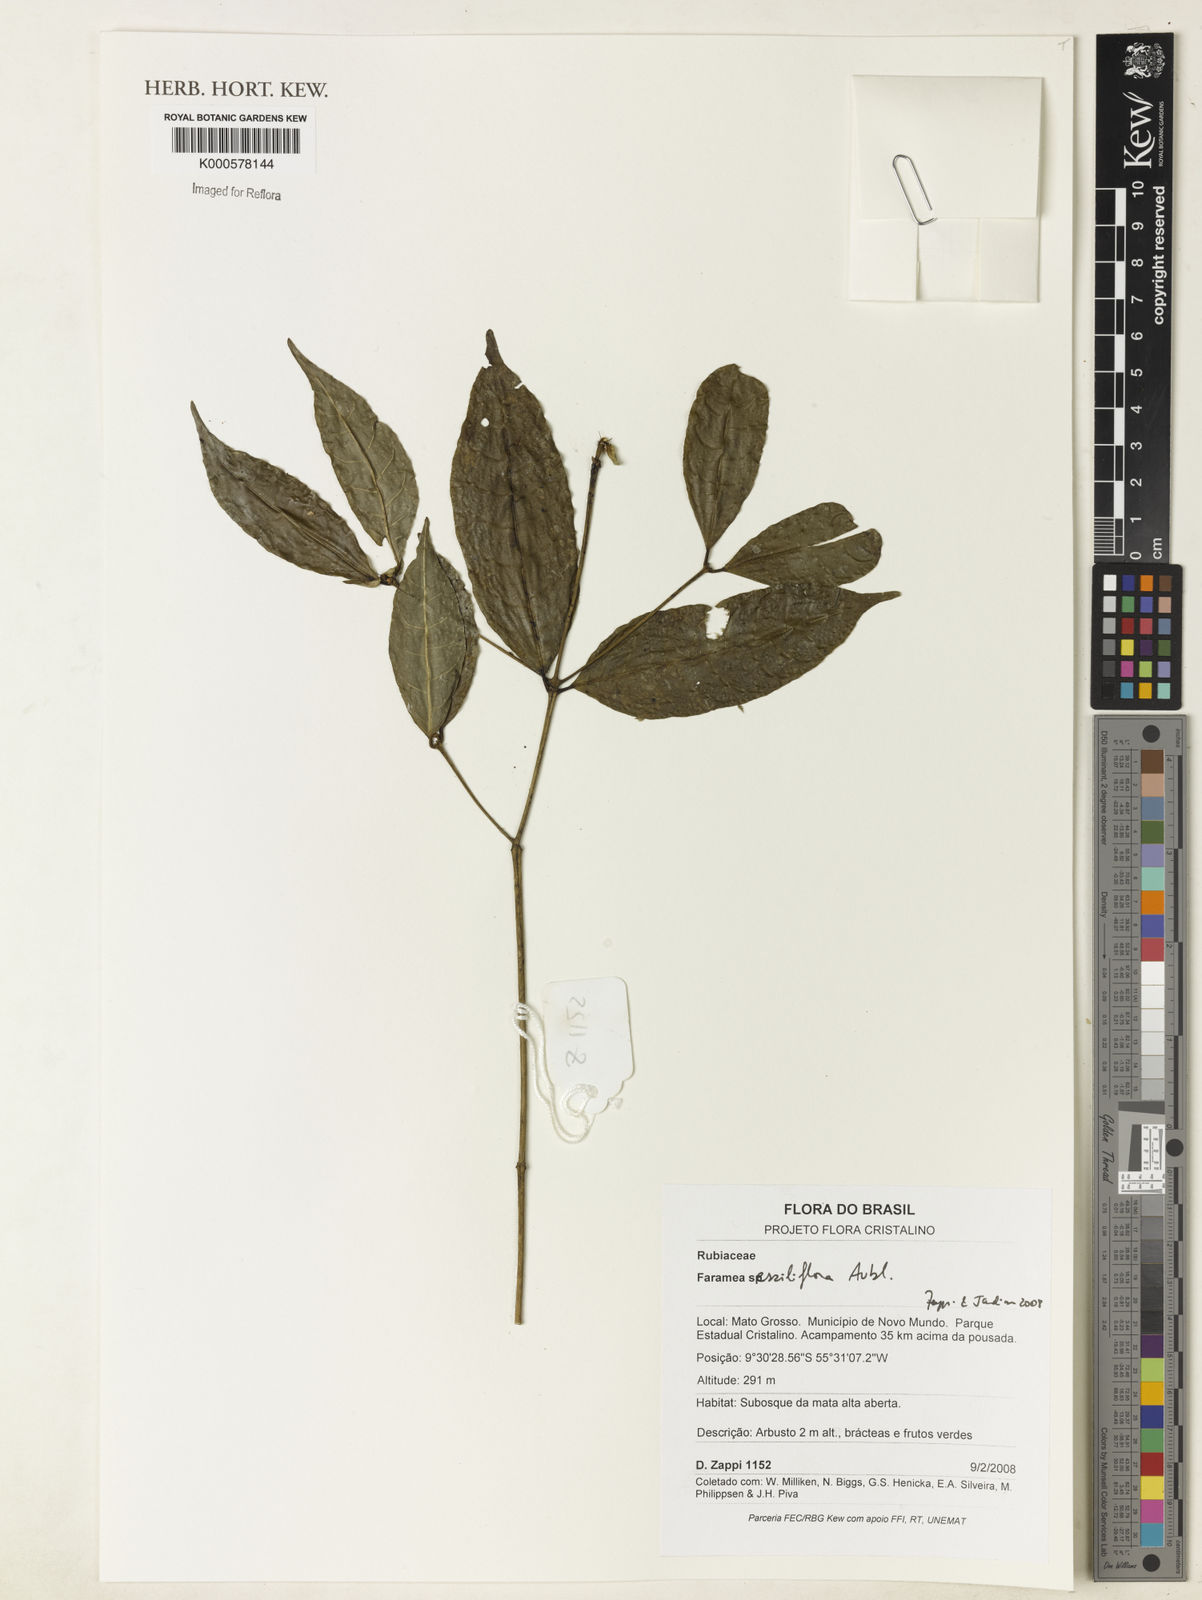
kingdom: Plantae
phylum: Tracheophyta
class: Magnoliopsida
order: Gentianales
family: Rubiaceae
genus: Faramea
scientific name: Faramea sessiliflora
